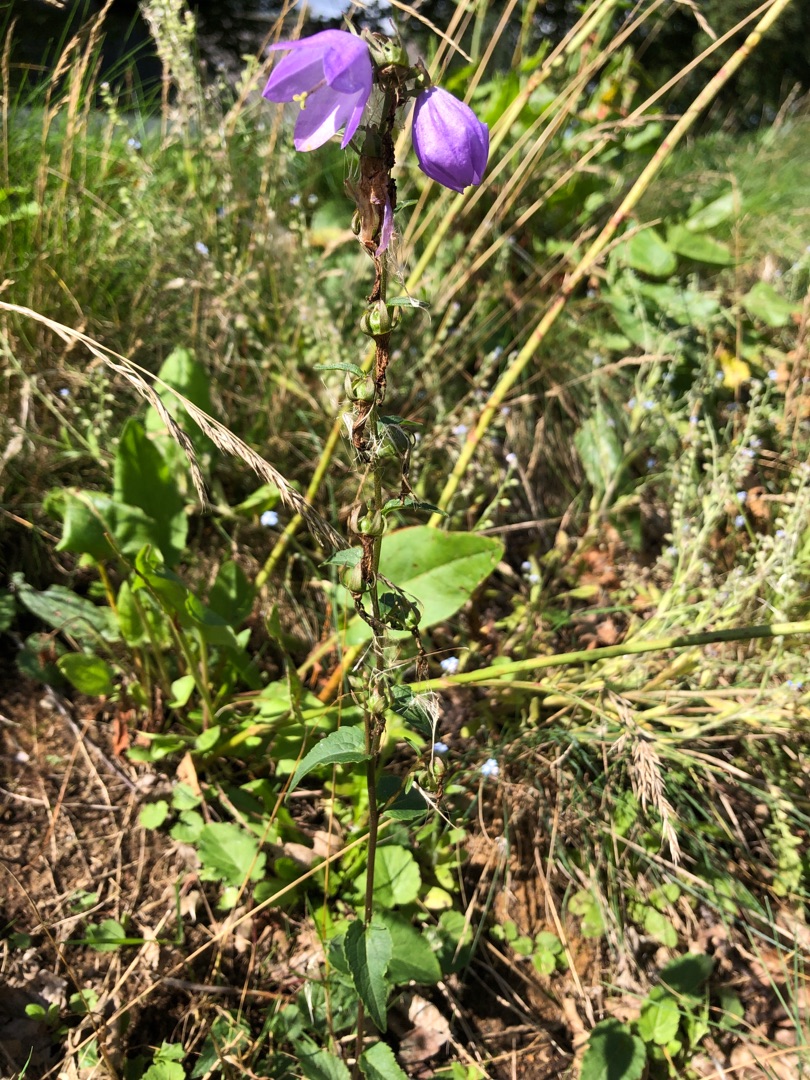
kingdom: Plantae
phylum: Tracheophyta
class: Magnoliopsida
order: Asterales
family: Campanulaceae
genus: Campanula
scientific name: Campanula rapunculoides
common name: Ensidig klokke
